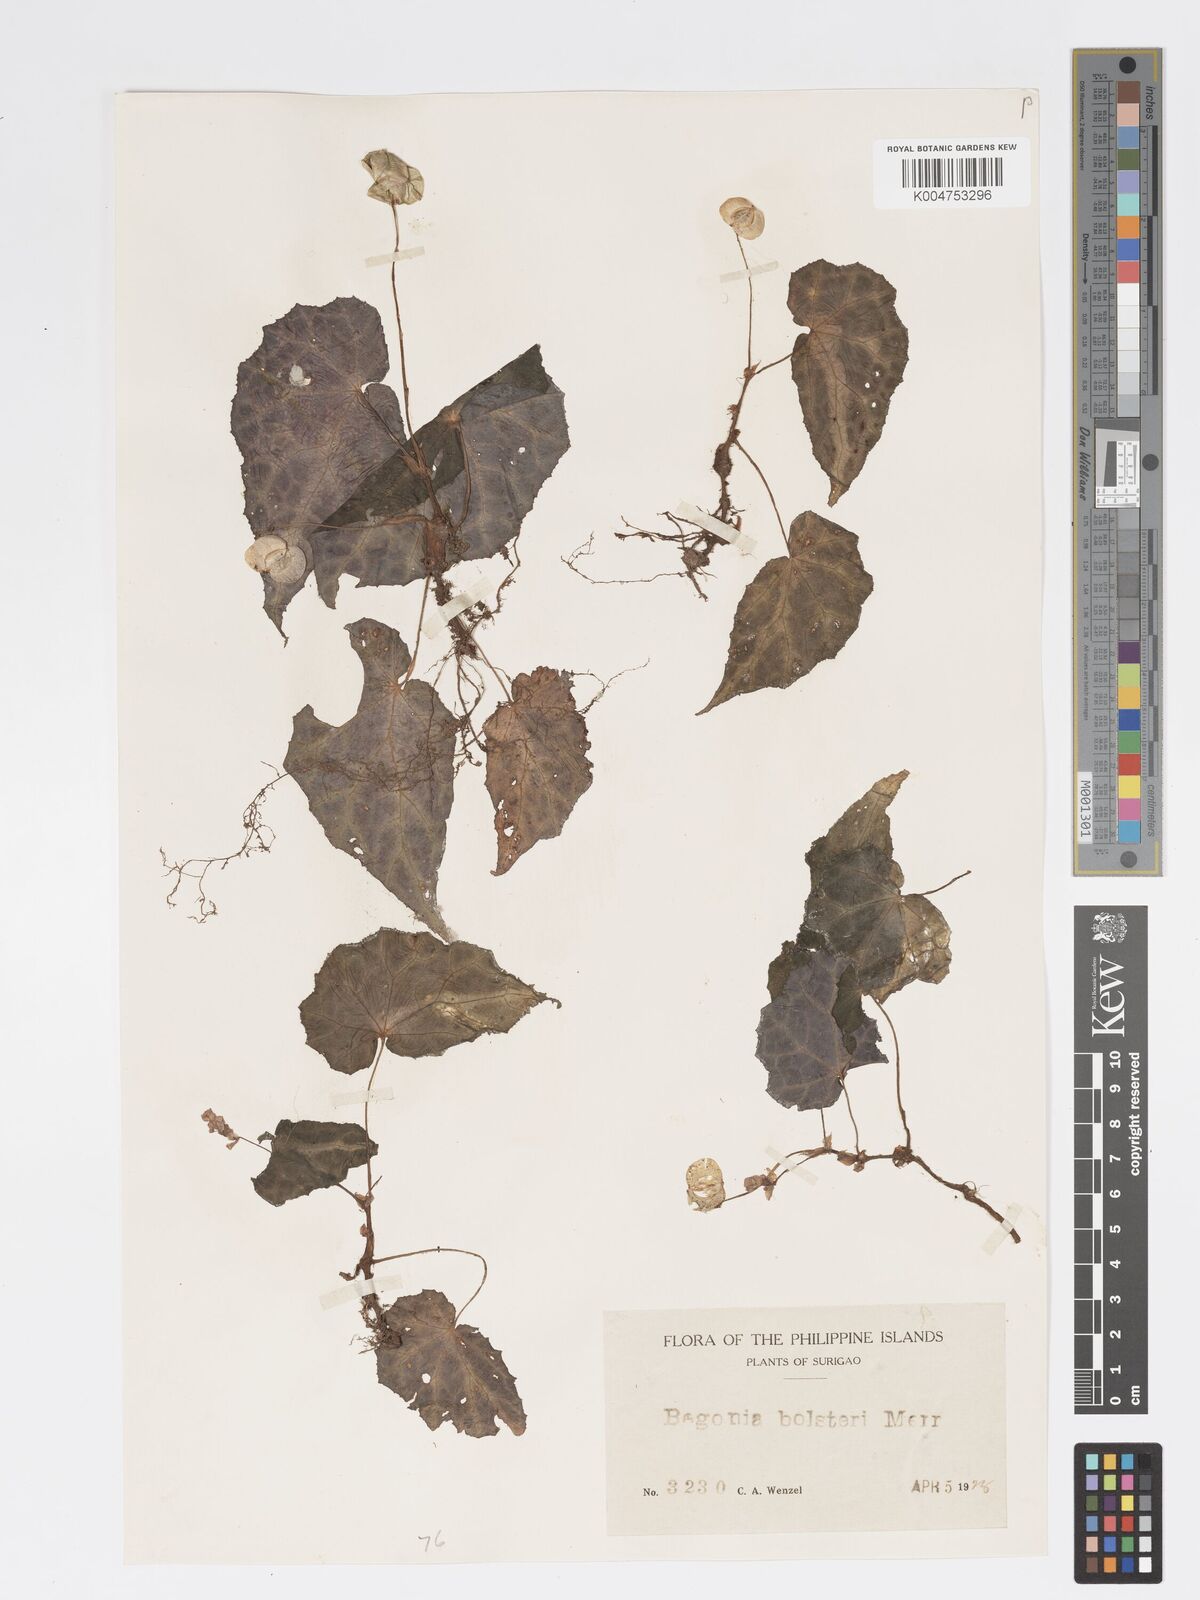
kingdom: Plantae
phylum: Tracheophyta
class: Magnoliopsida
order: Cucurbitales
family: Begoniaceae
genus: Begonia
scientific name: Begonia colorata
